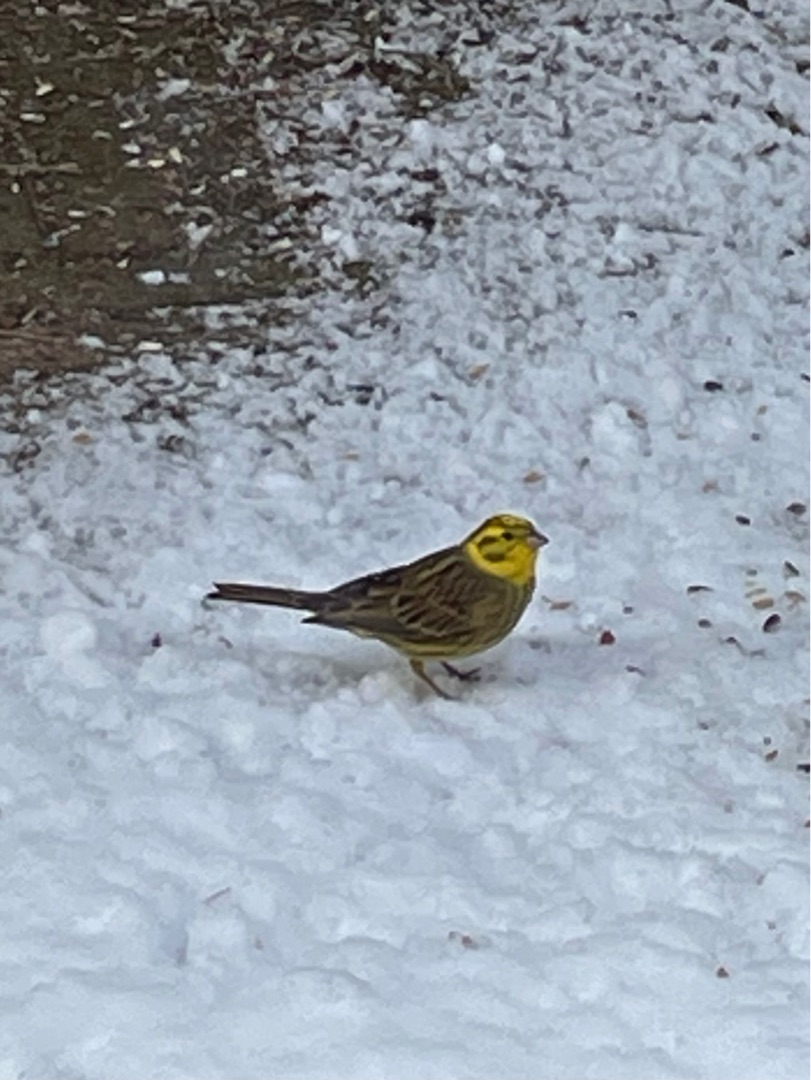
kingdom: Animalia
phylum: Chordata
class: Aves
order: Passeriformes
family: Emberizidae
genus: Emberiza
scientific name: Emberiza citrinella
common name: Gulspurv
